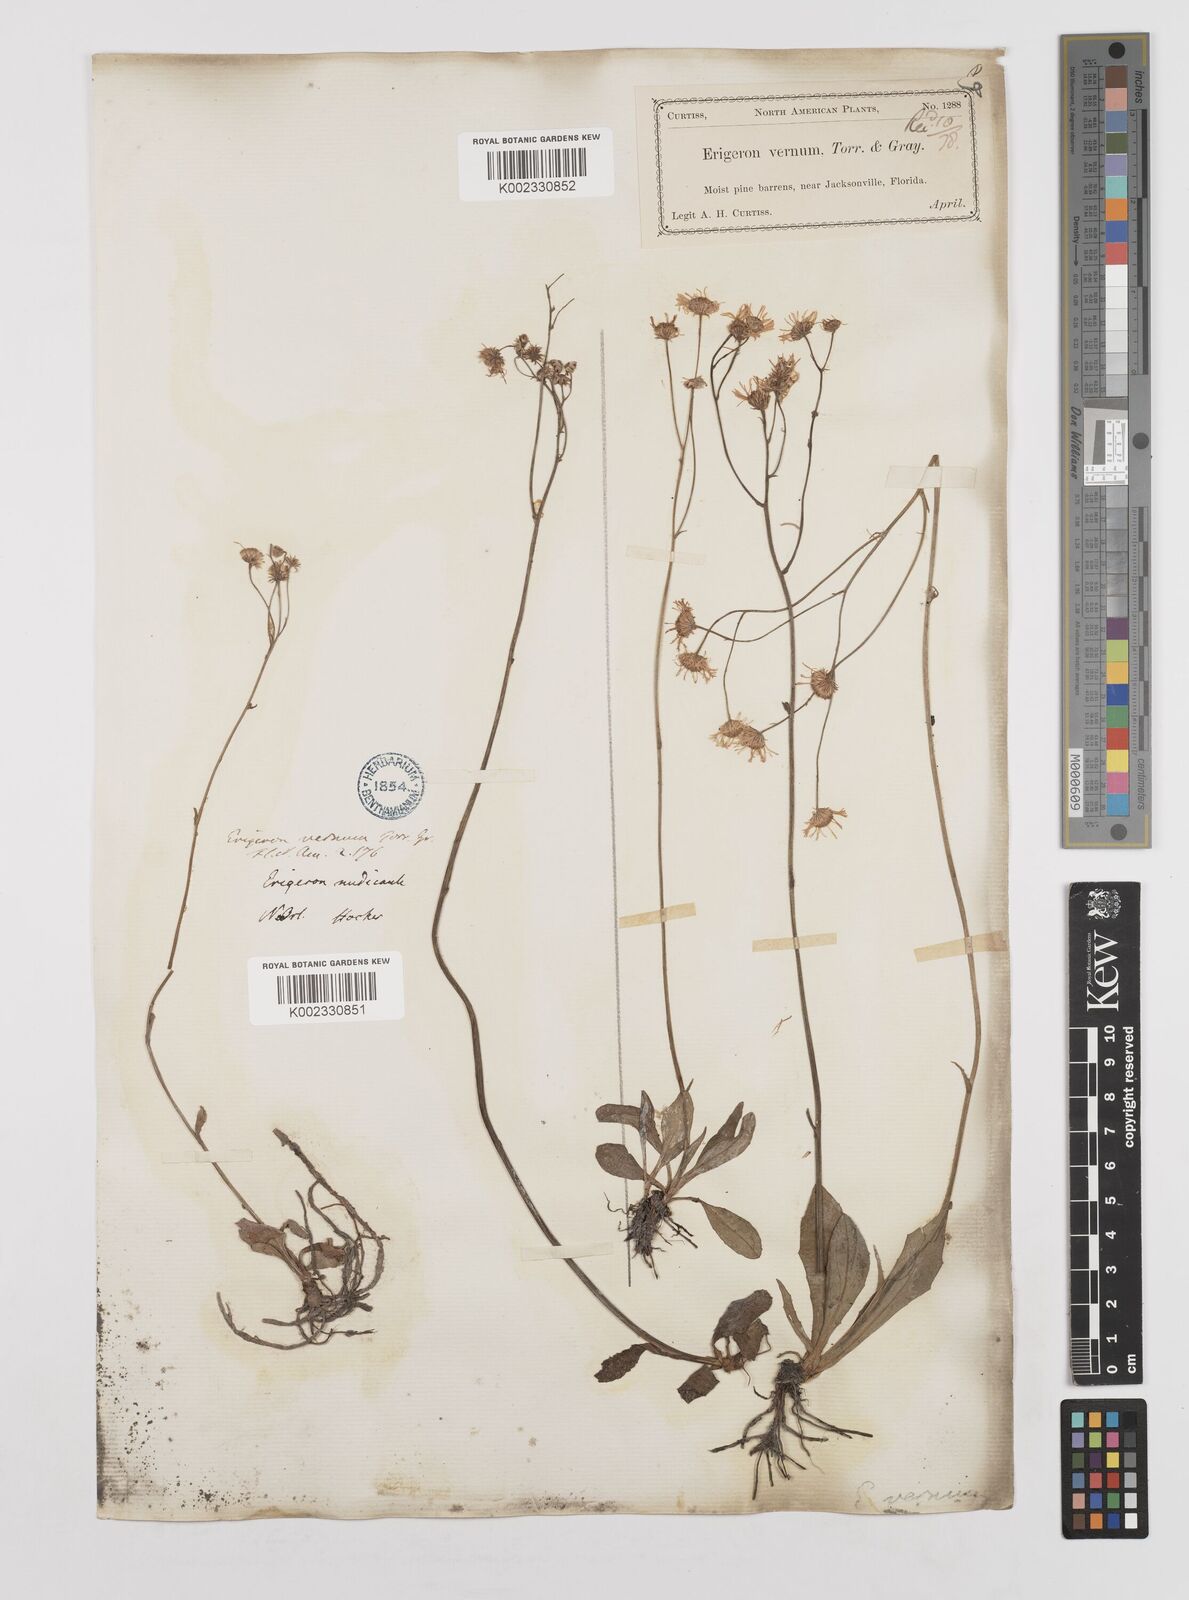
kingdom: Plantae
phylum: Tracheophyta
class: Magnoliopsida
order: Asterales
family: Asteraceae
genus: Erigeron
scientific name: Erigeron vernus
